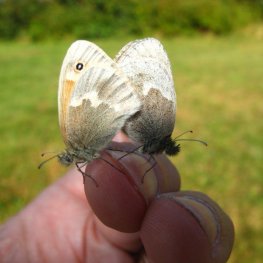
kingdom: Animalia
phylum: Arthropoda
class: Insecta
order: Lepidoptera
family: Nymphalidae
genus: Coenonympha
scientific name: Coenonympha tullia
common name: Large Heath
